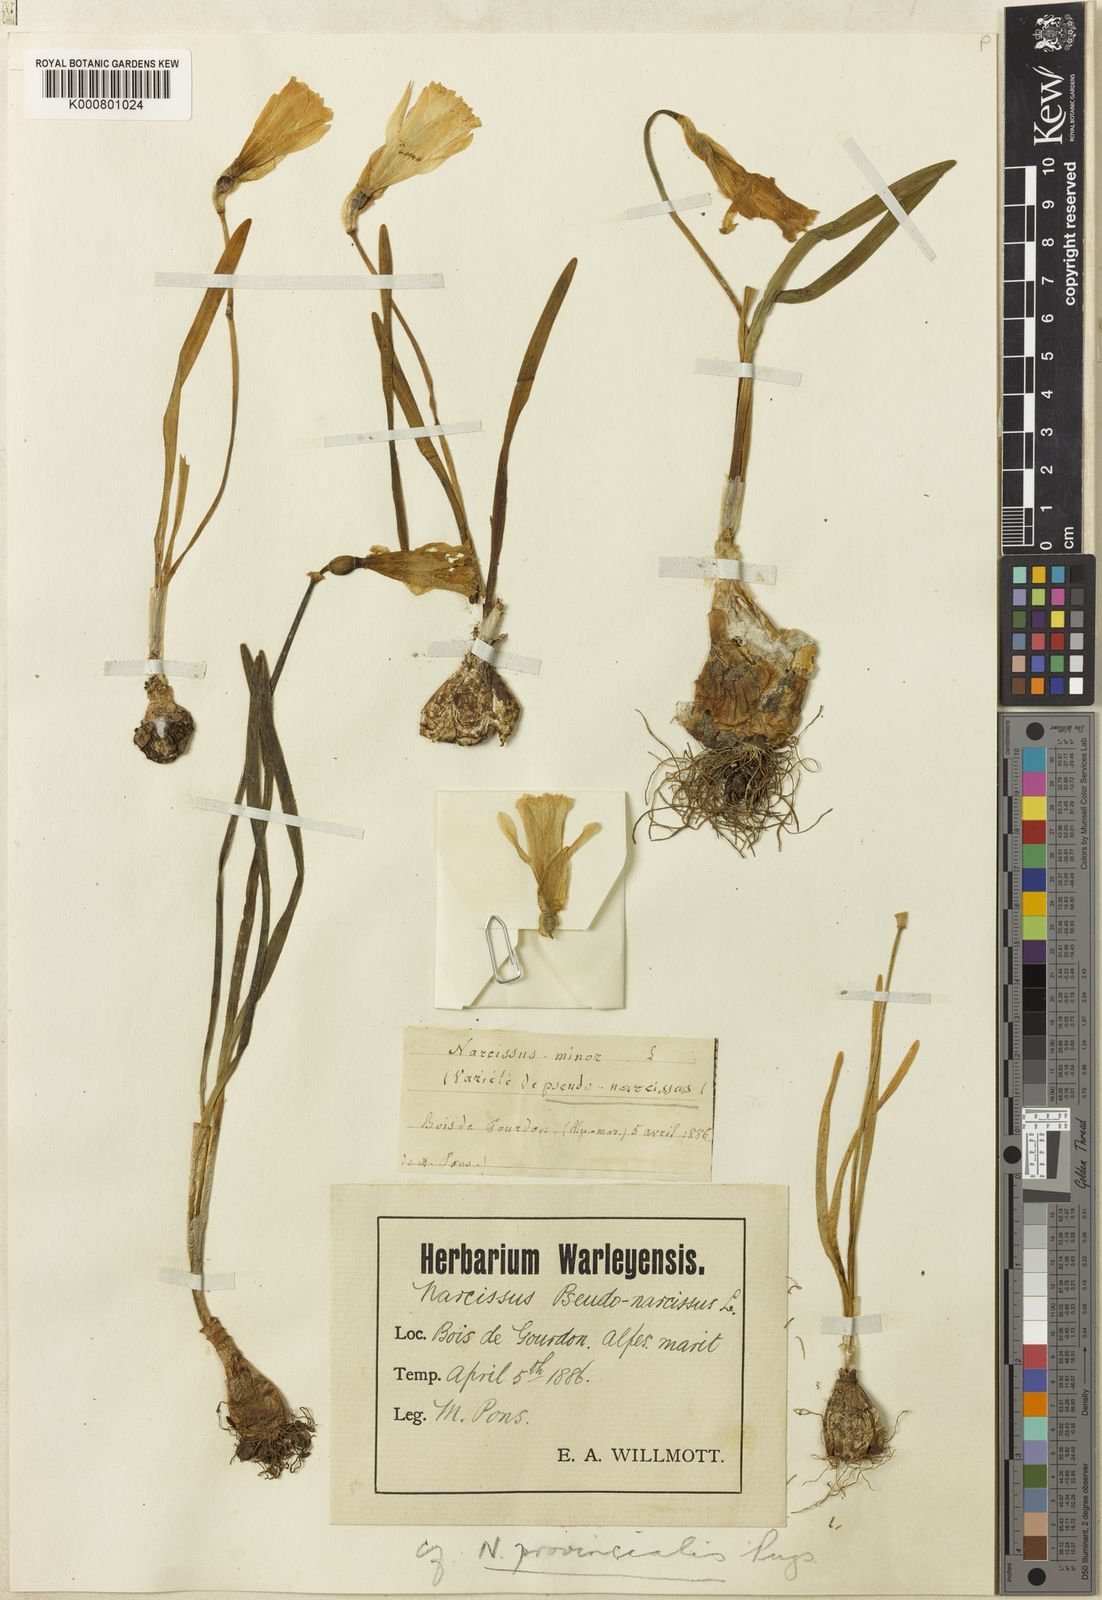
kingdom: Plantae
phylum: Tracheophyta
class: Liliopsida
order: Asparagales
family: Amaryllidaceae
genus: Narcissus
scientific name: Narcissus minor
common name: Lesser daffodil
